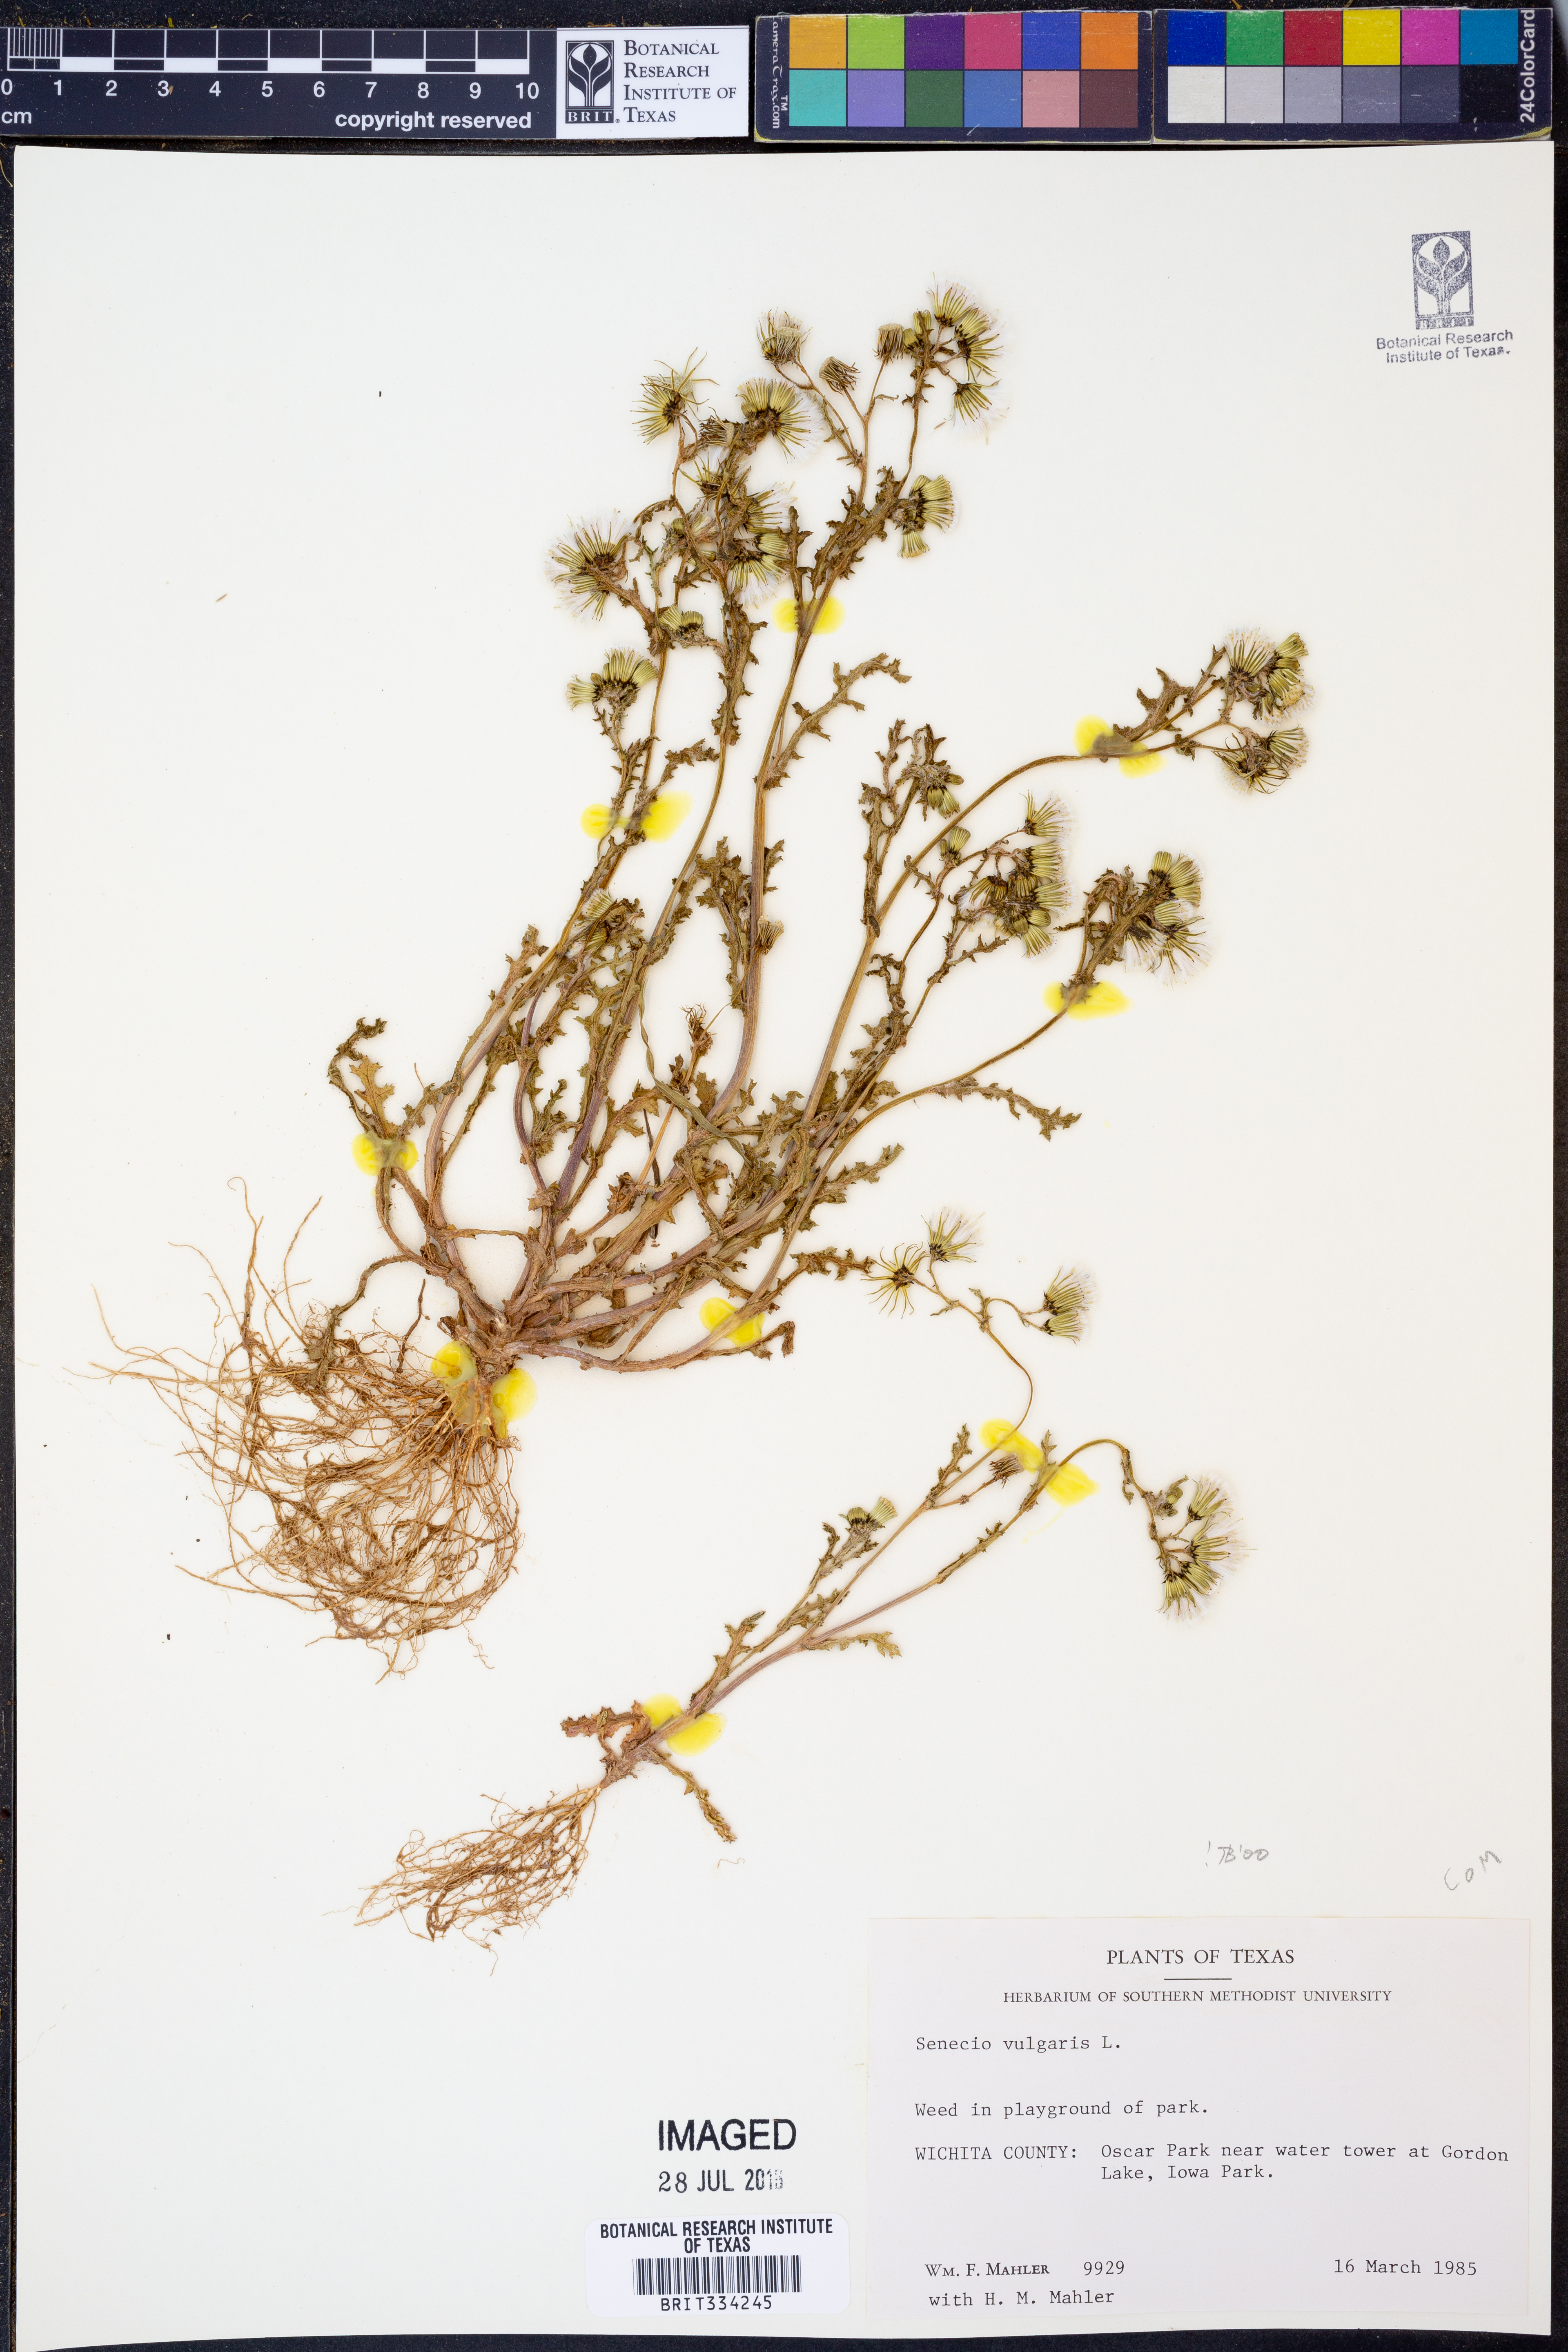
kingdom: Plantae
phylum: Tracheophyta
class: Magnoliopsida
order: Asterales
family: Asteraceae
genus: Senecio
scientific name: Senecio vulgaris
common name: Old-man-in-the-spring
